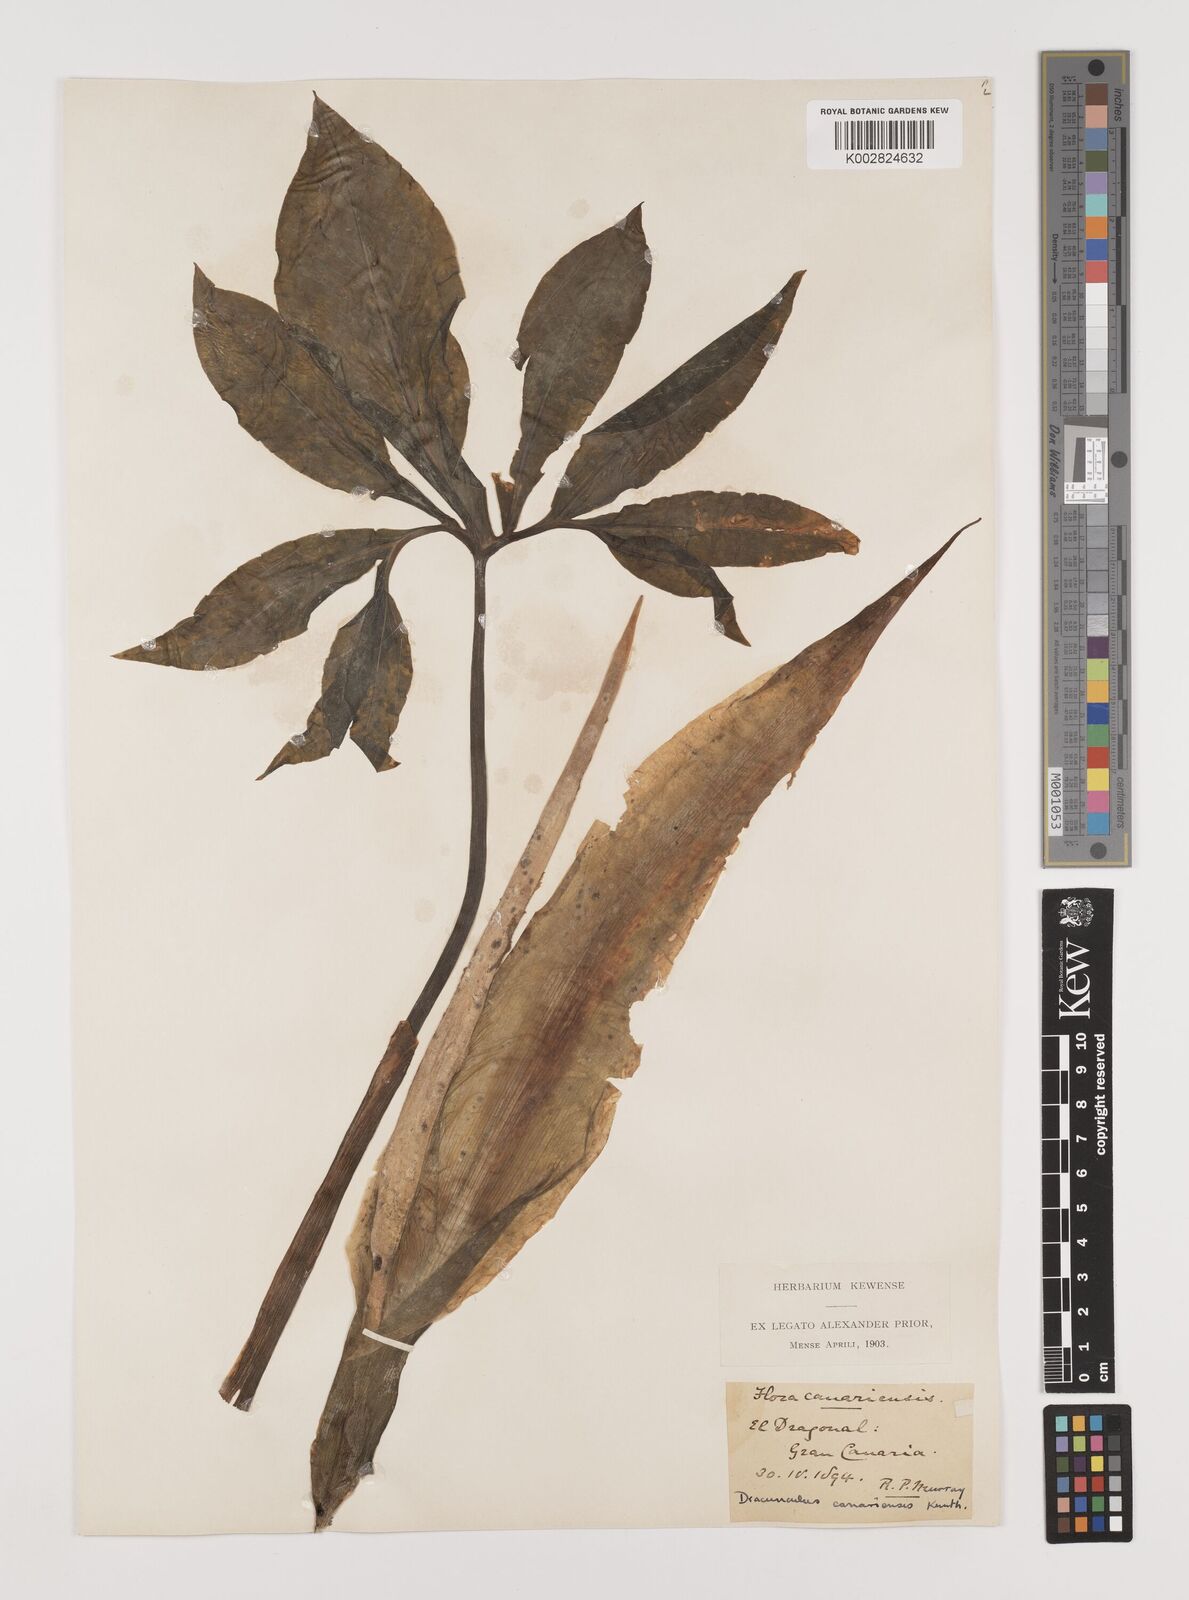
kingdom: Plantae
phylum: Tracheophyta
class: Liliopsida
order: Alismatales
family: Araceae
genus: Dracunculus
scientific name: Dracunculus
